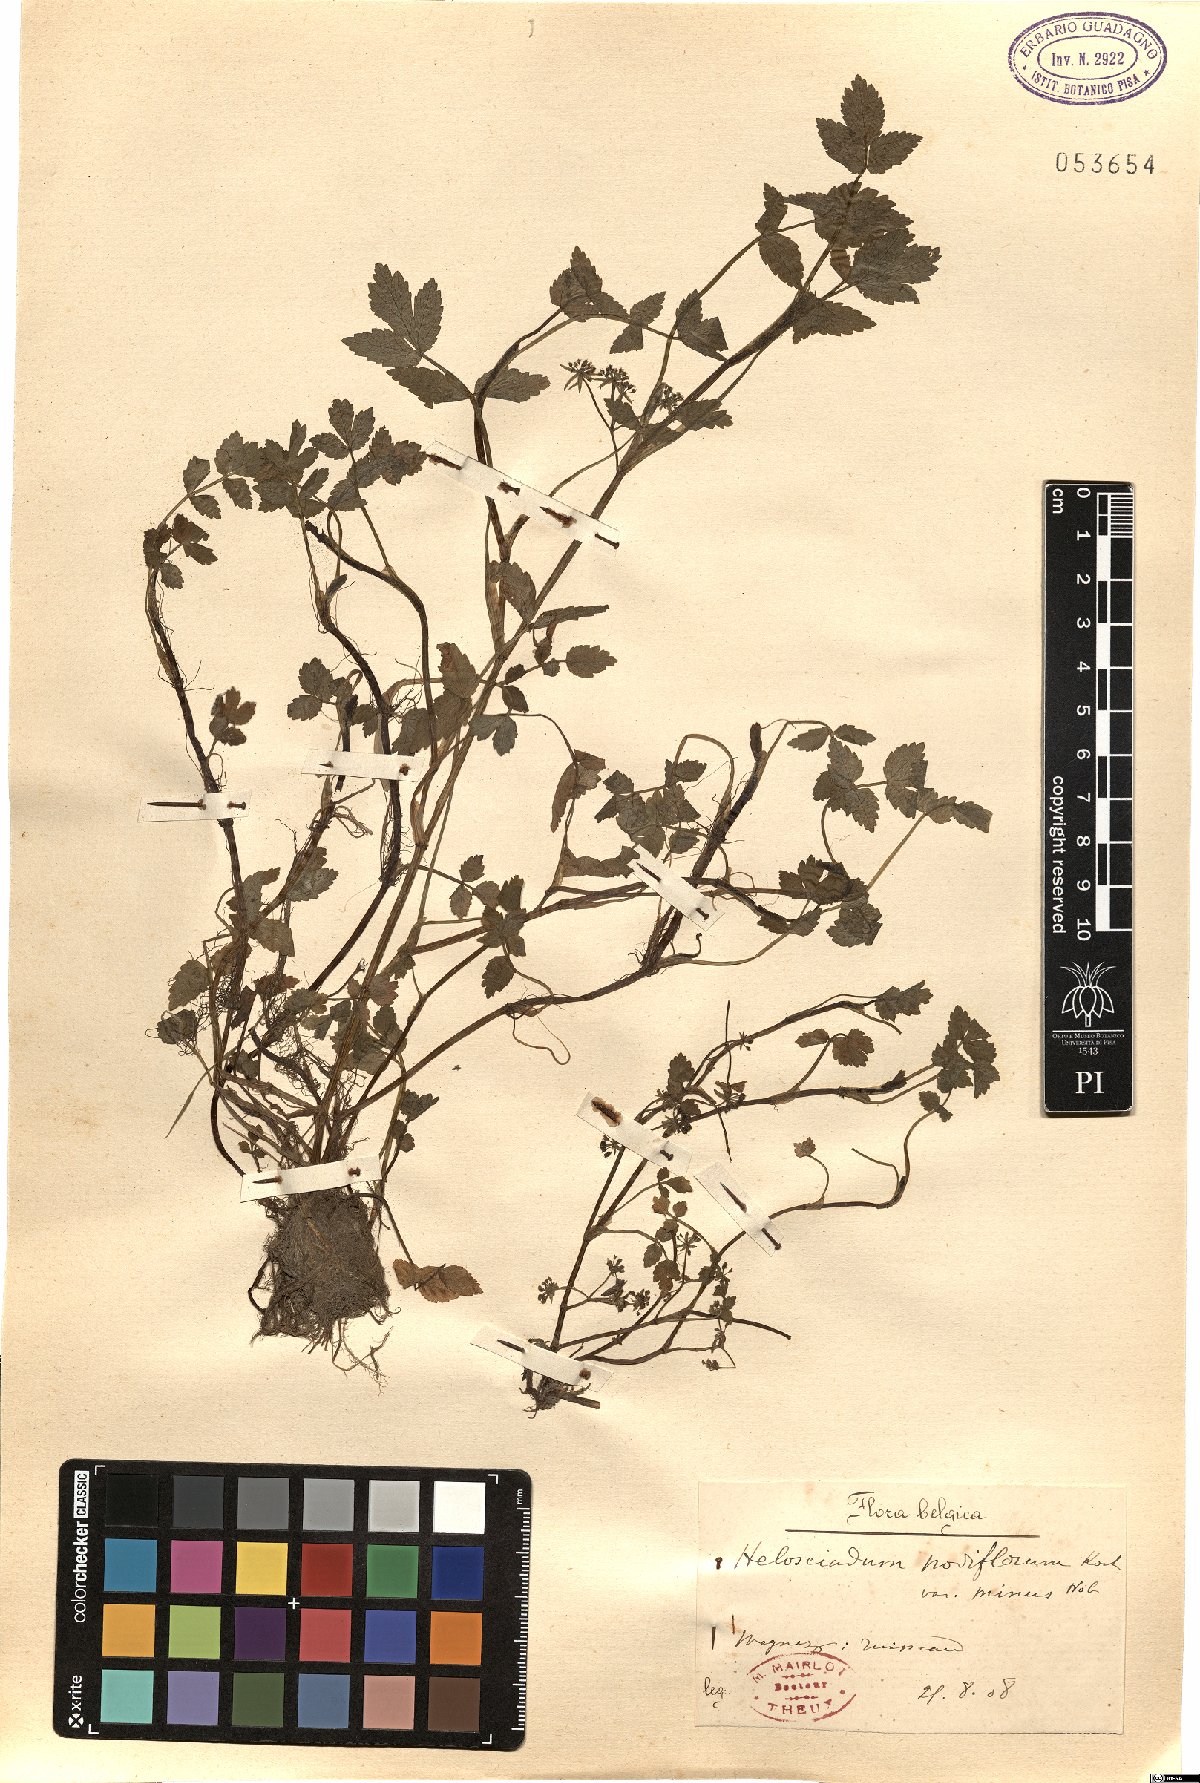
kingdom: Plantae
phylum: Tracheophyta
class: Magnoliopsida
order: Apiales
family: Apiaceae
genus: Helosciadium
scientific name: Helosciadium nodiflorum
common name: Fool's-watercress
